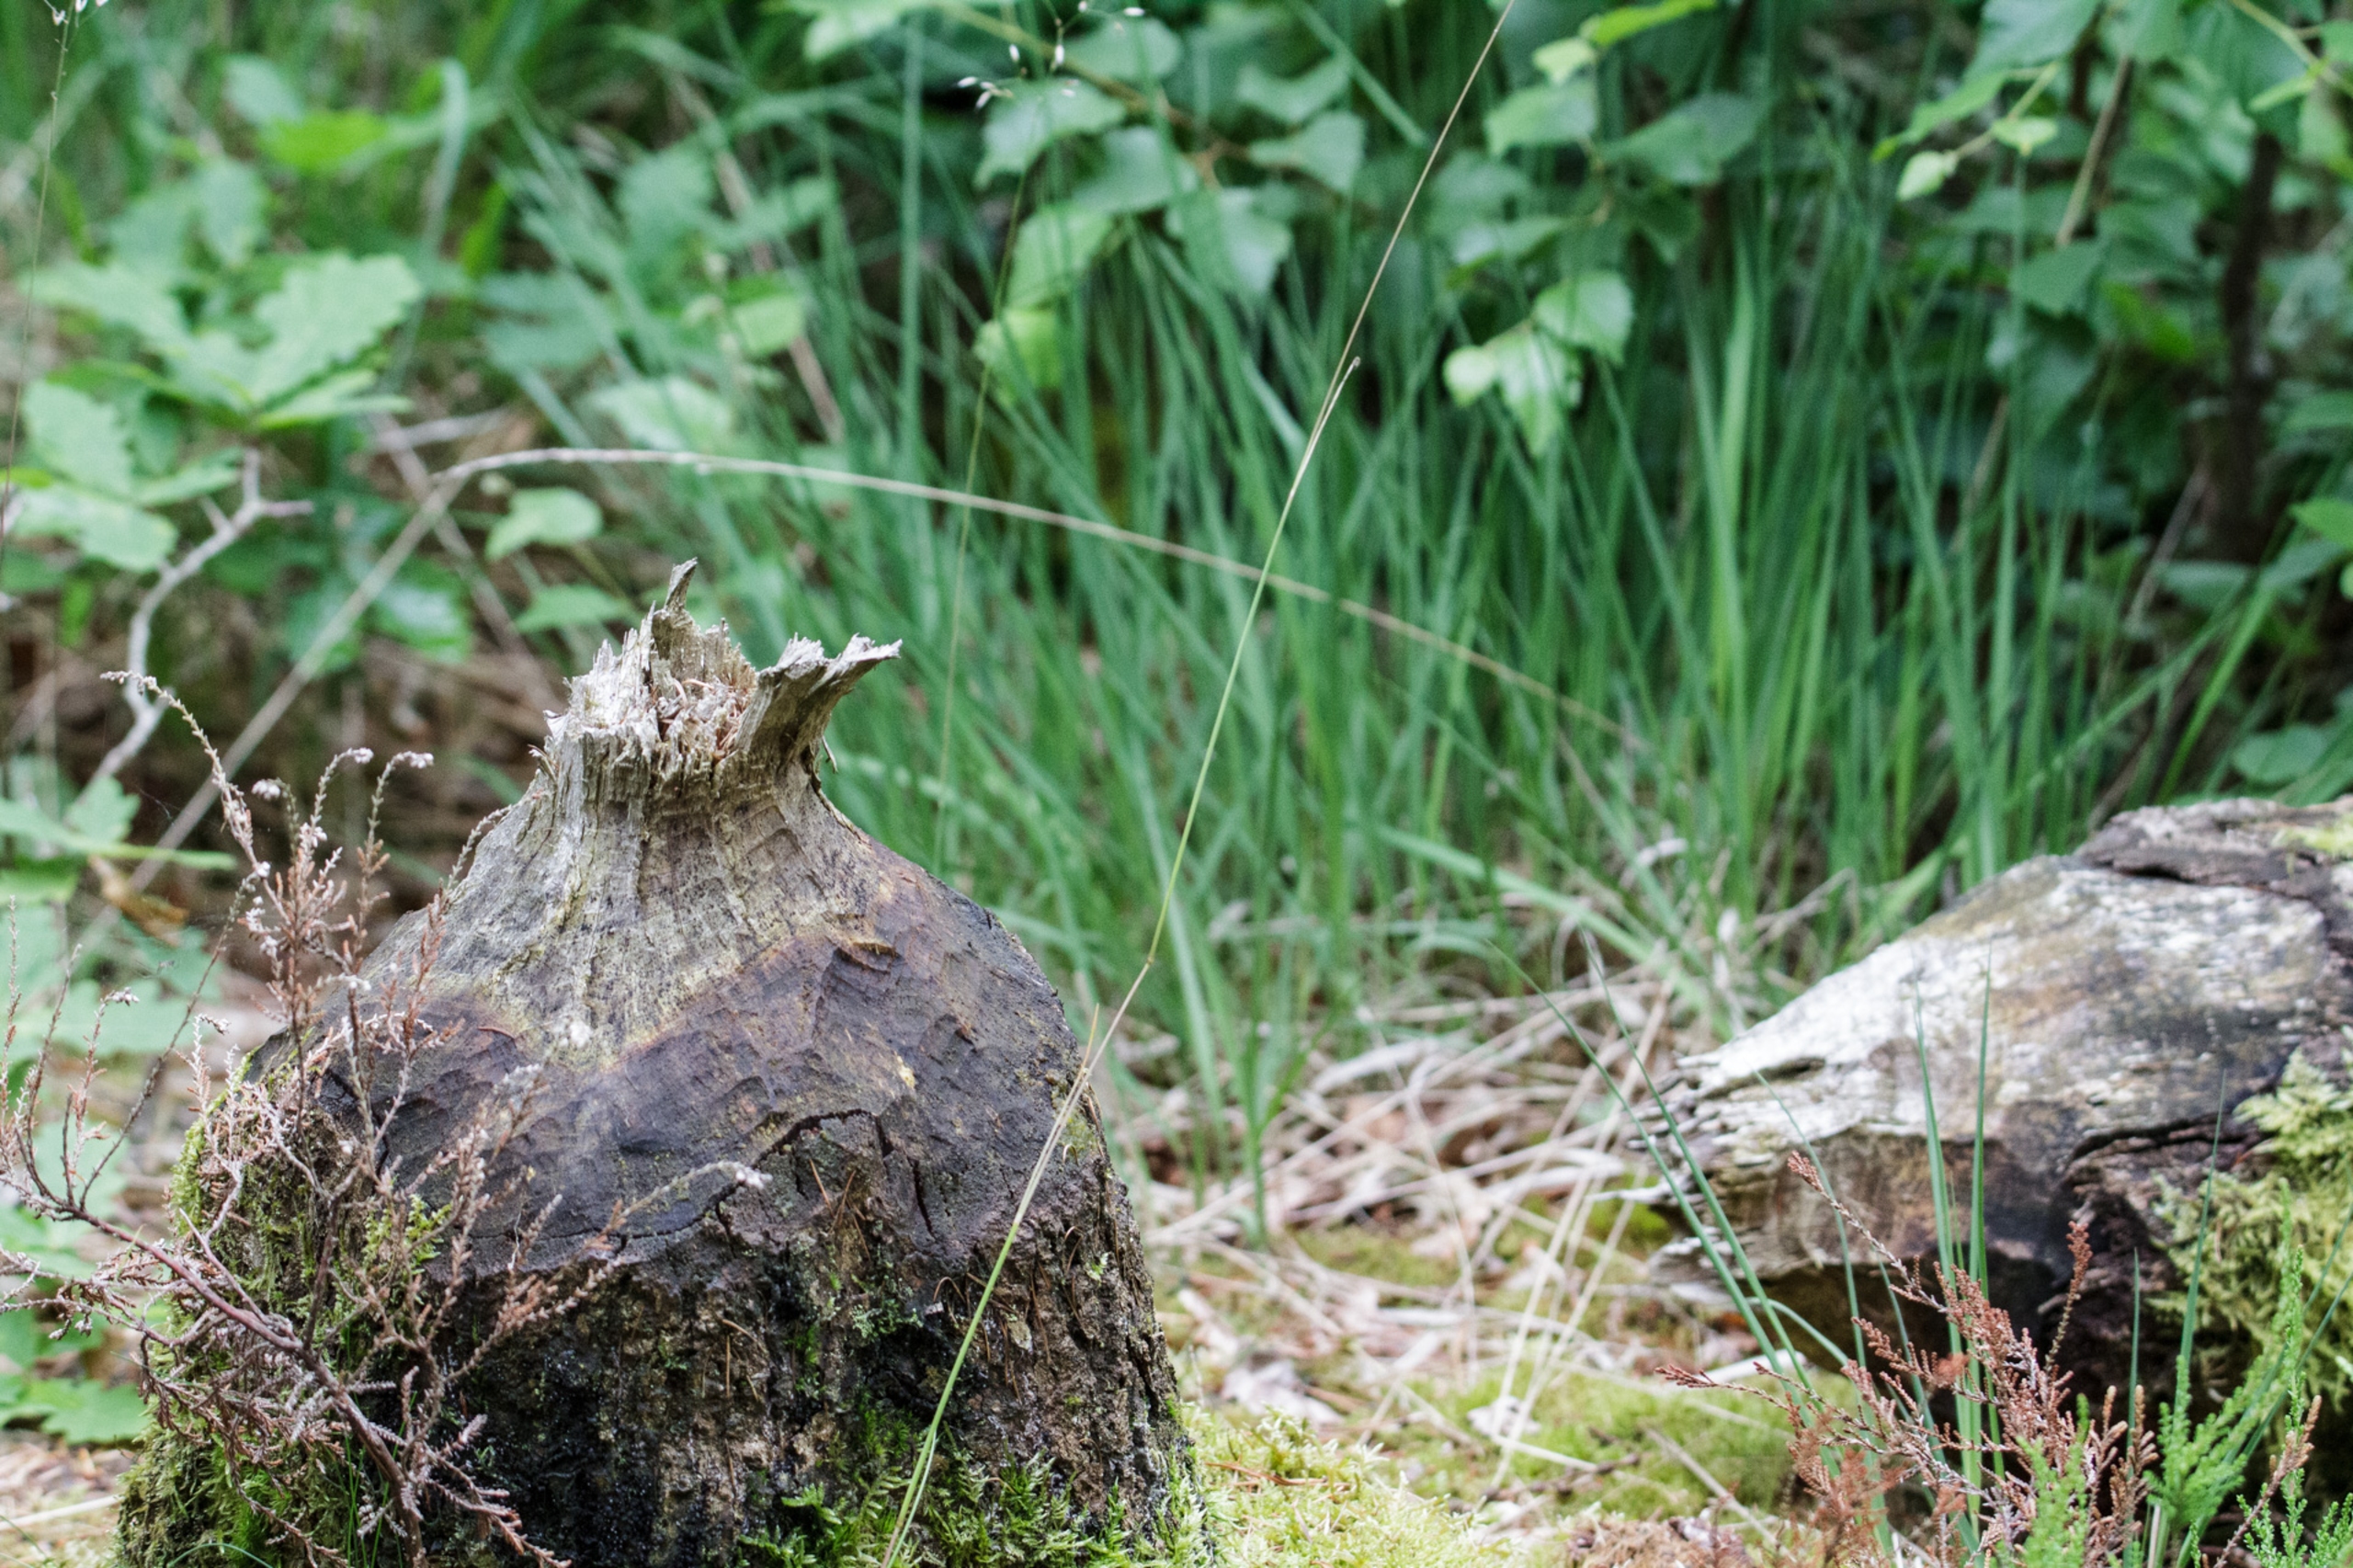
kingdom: Animalia
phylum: Chordata
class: Mammalia
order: Rodentia
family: Castoridae
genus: Castor
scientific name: Castor fiber
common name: Bæver
